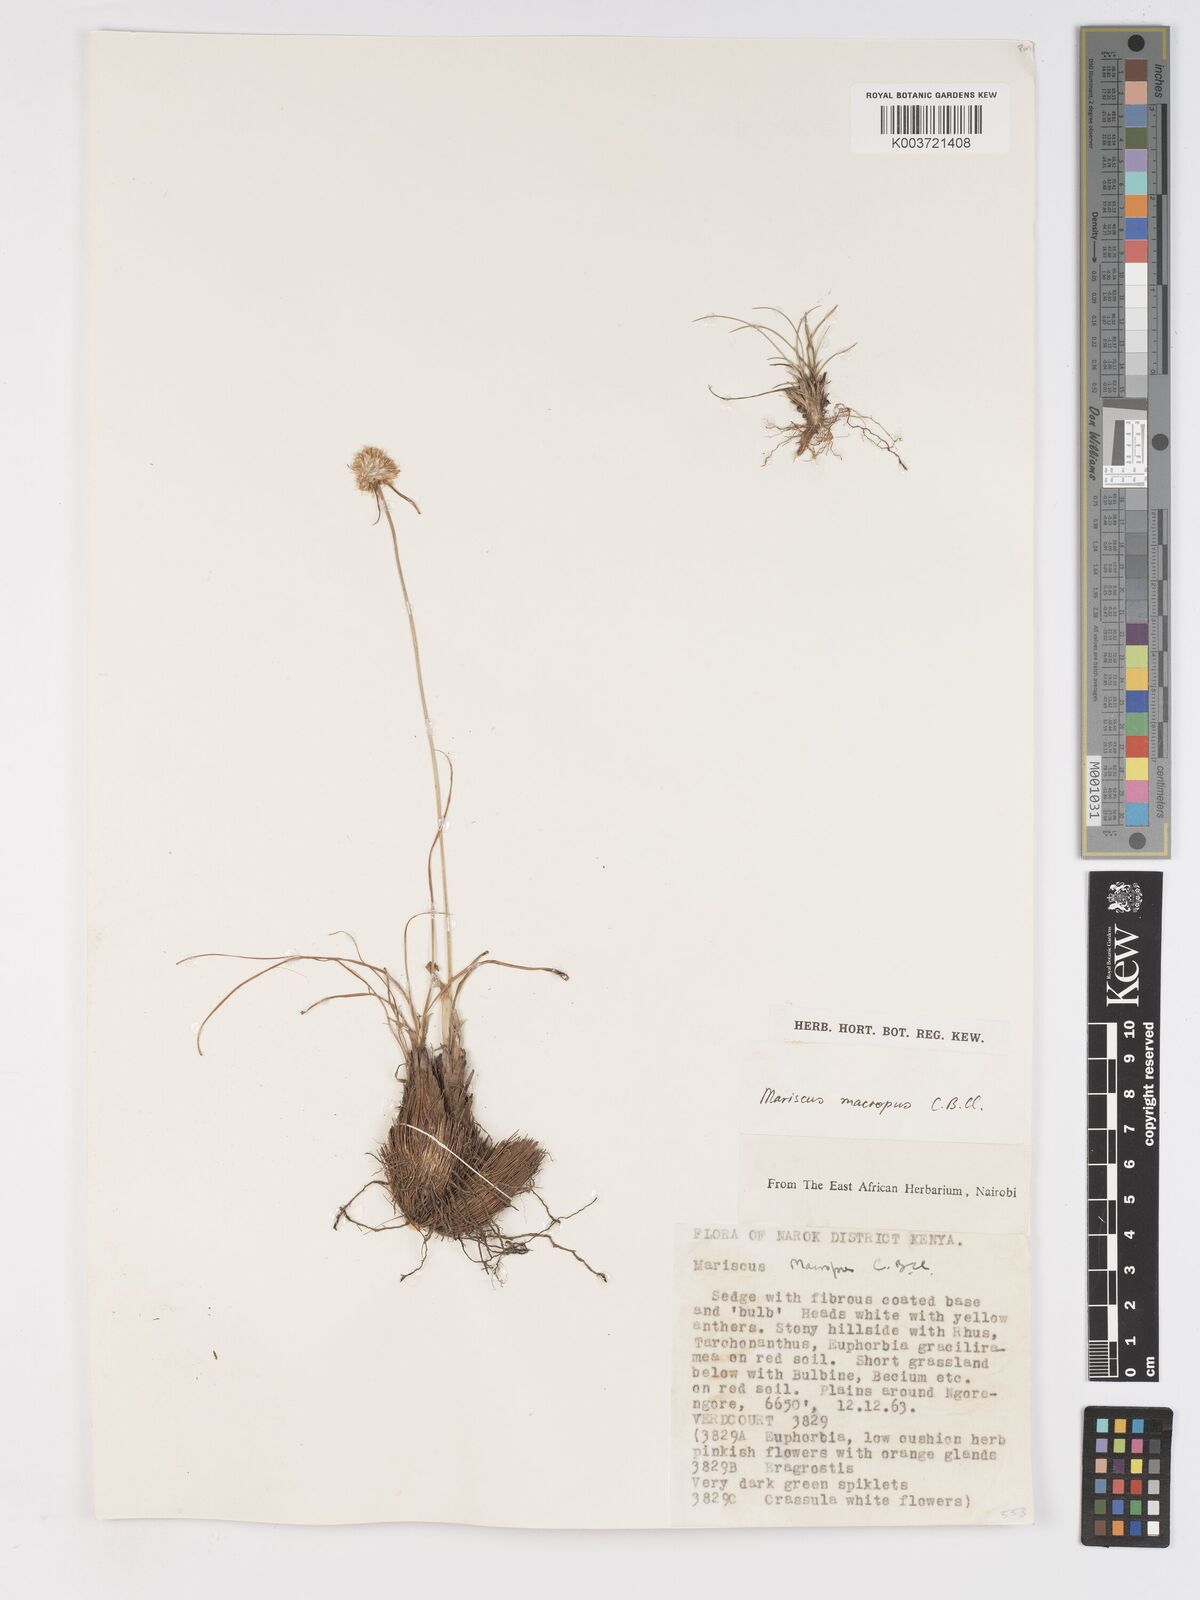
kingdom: Plantae
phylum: Tracheophyta
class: Liliopsida
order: Poales
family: Cyperaceae
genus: Cyperus
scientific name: Cyperus mollipes
